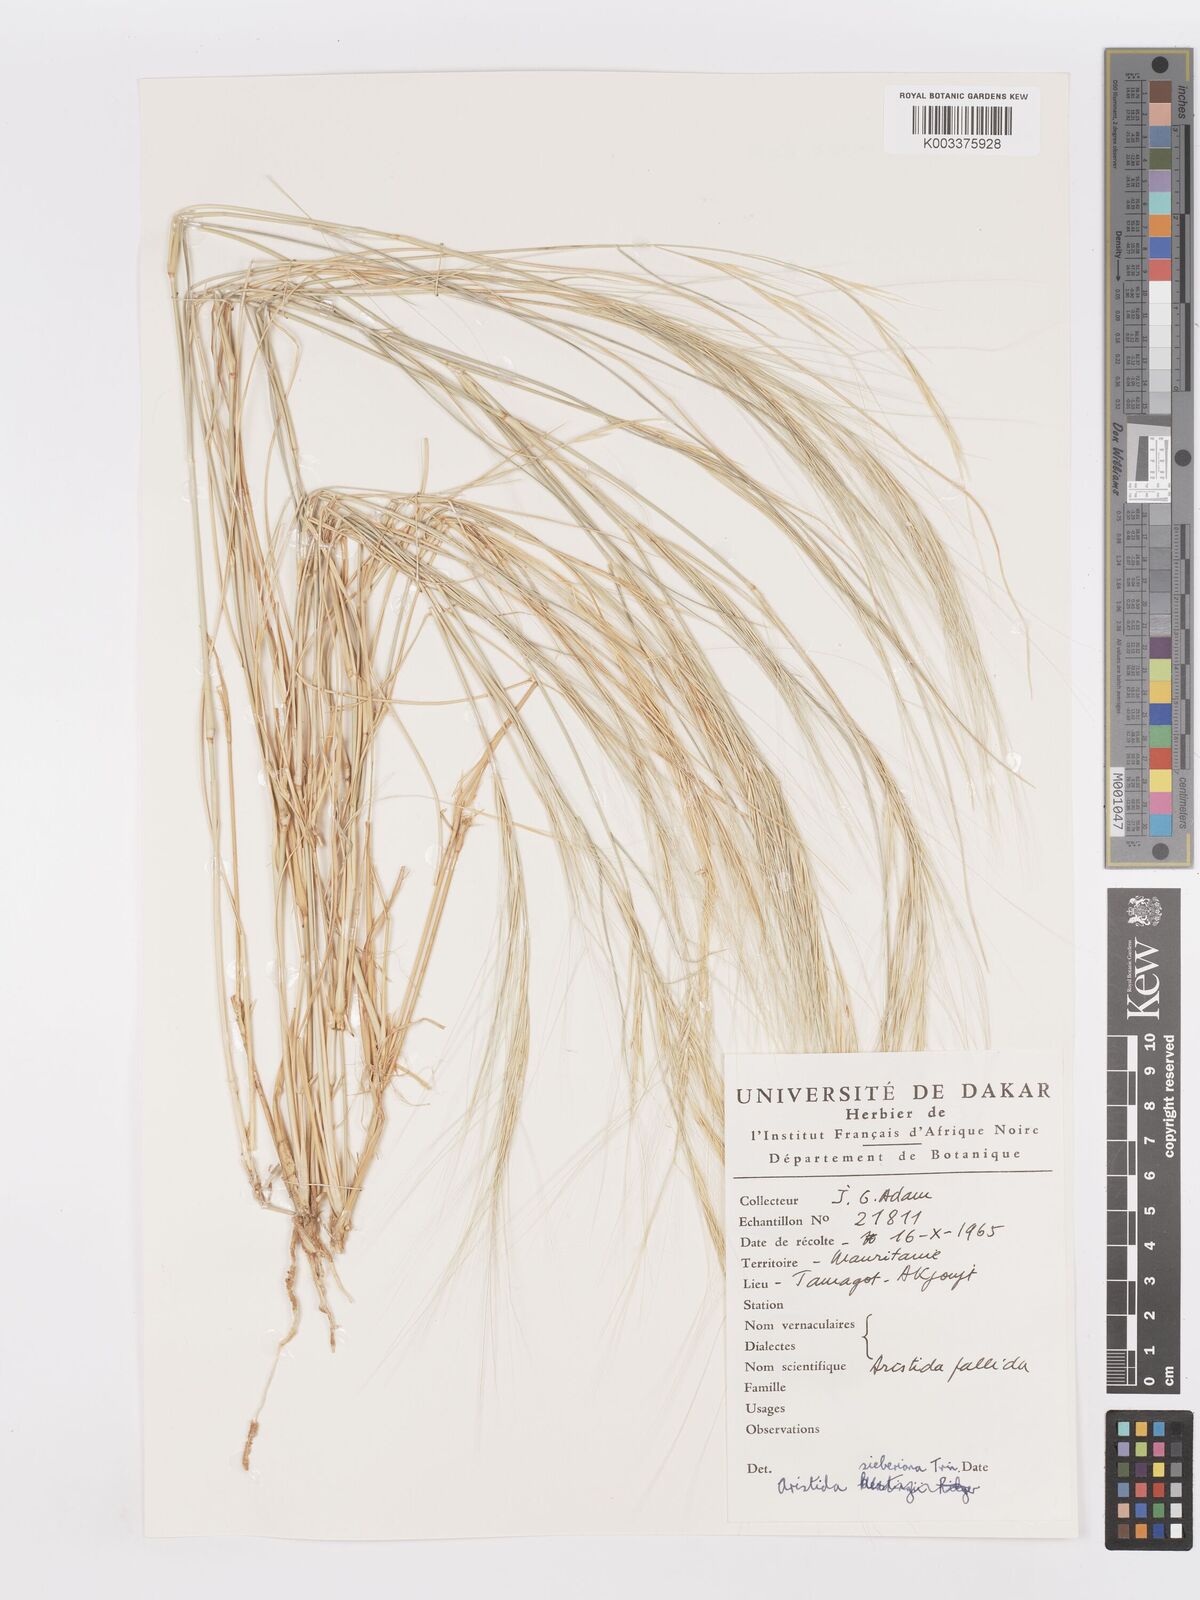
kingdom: Plantae
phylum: Tracheophyta
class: Liliopsida
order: Poales
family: Poaceae
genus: Aristida
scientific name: Aristida sieberiana
